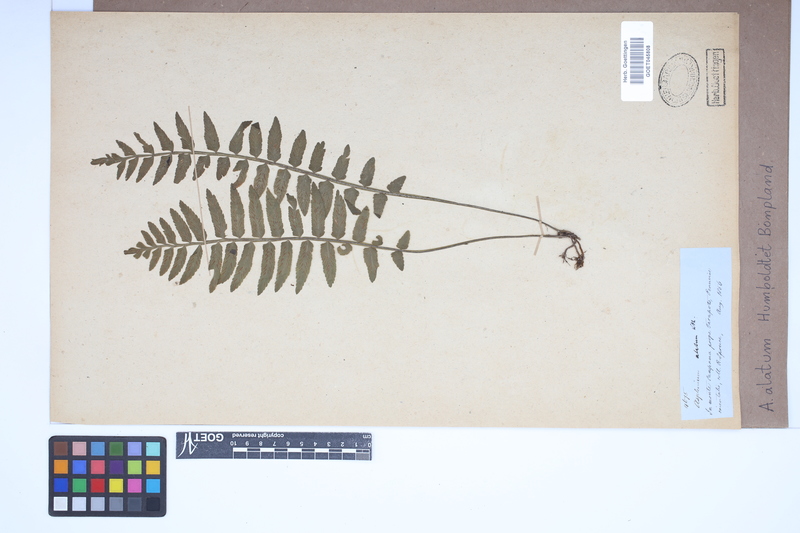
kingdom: Plantae
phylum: Tracheophyta
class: Polypodiopsida
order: Polypodiales
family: Aspleniaceae
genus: Asplenium
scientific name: Asplenium alatum
